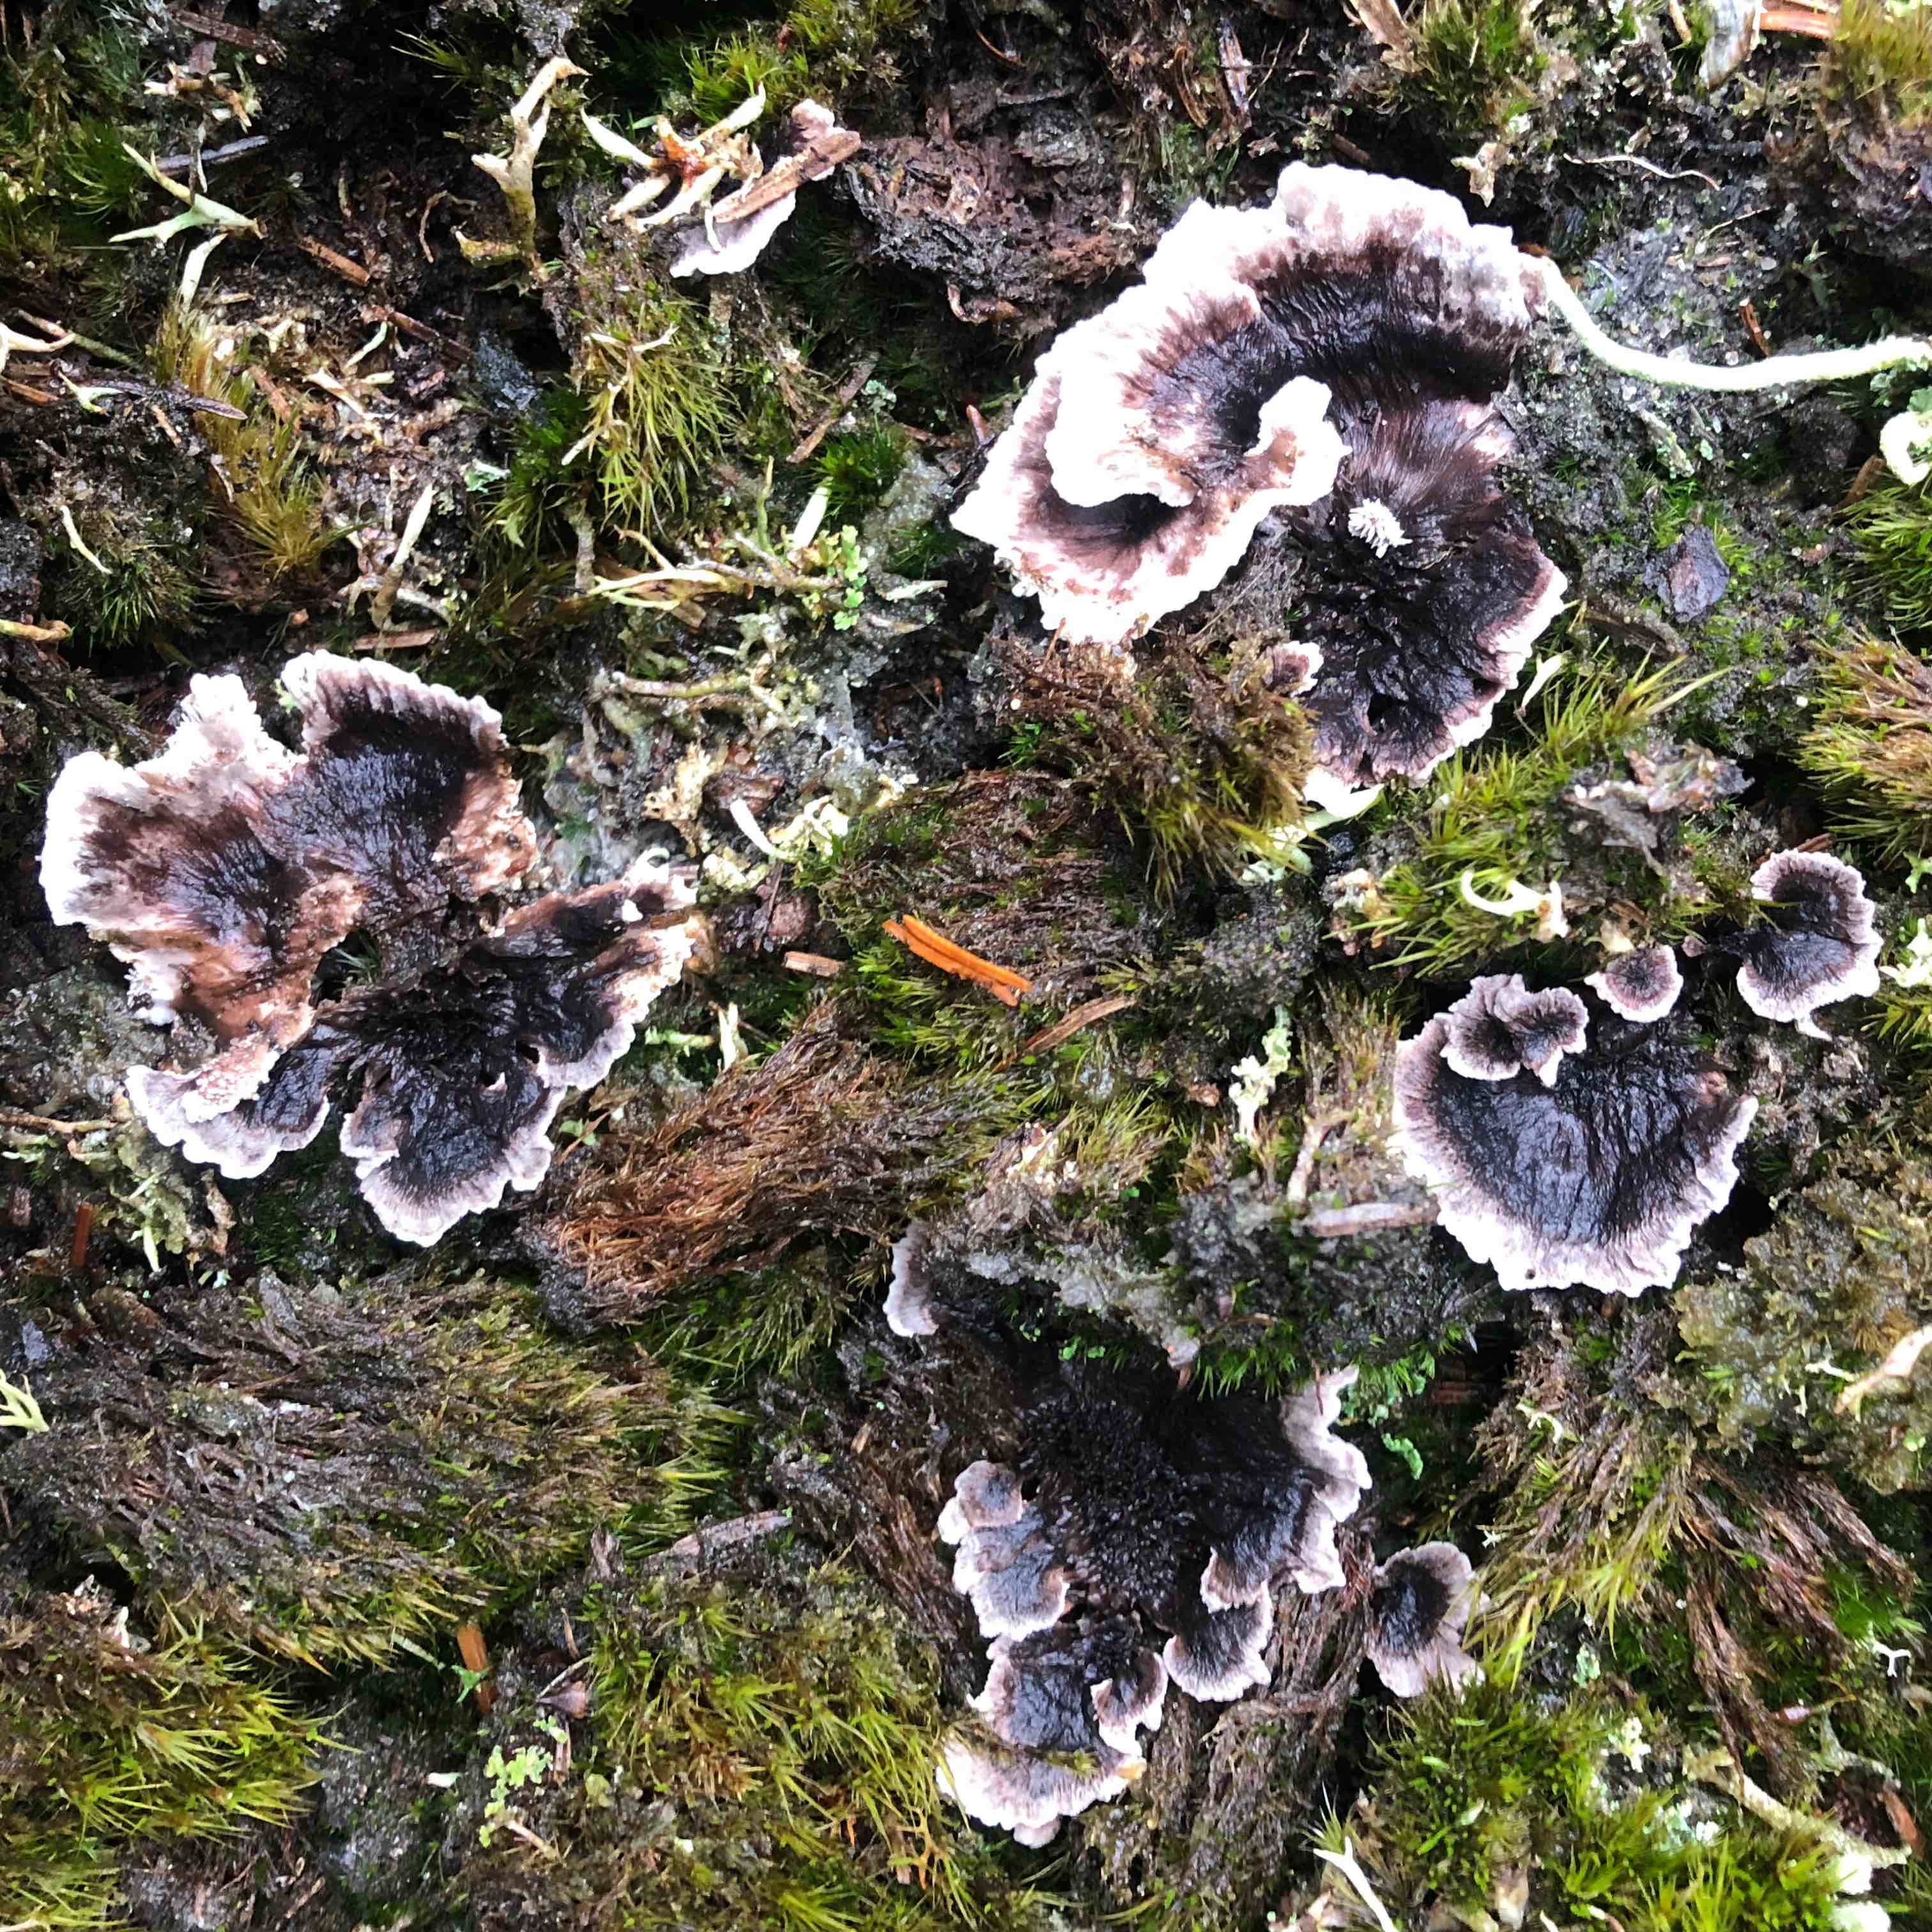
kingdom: Fungi
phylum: Basidiomycota
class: Agaricomycetes
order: Thelephorales
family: Thelephoraceae
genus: Phellodon
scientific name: Phellodon tomentosus
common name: vellugtende duftpigsvamp
